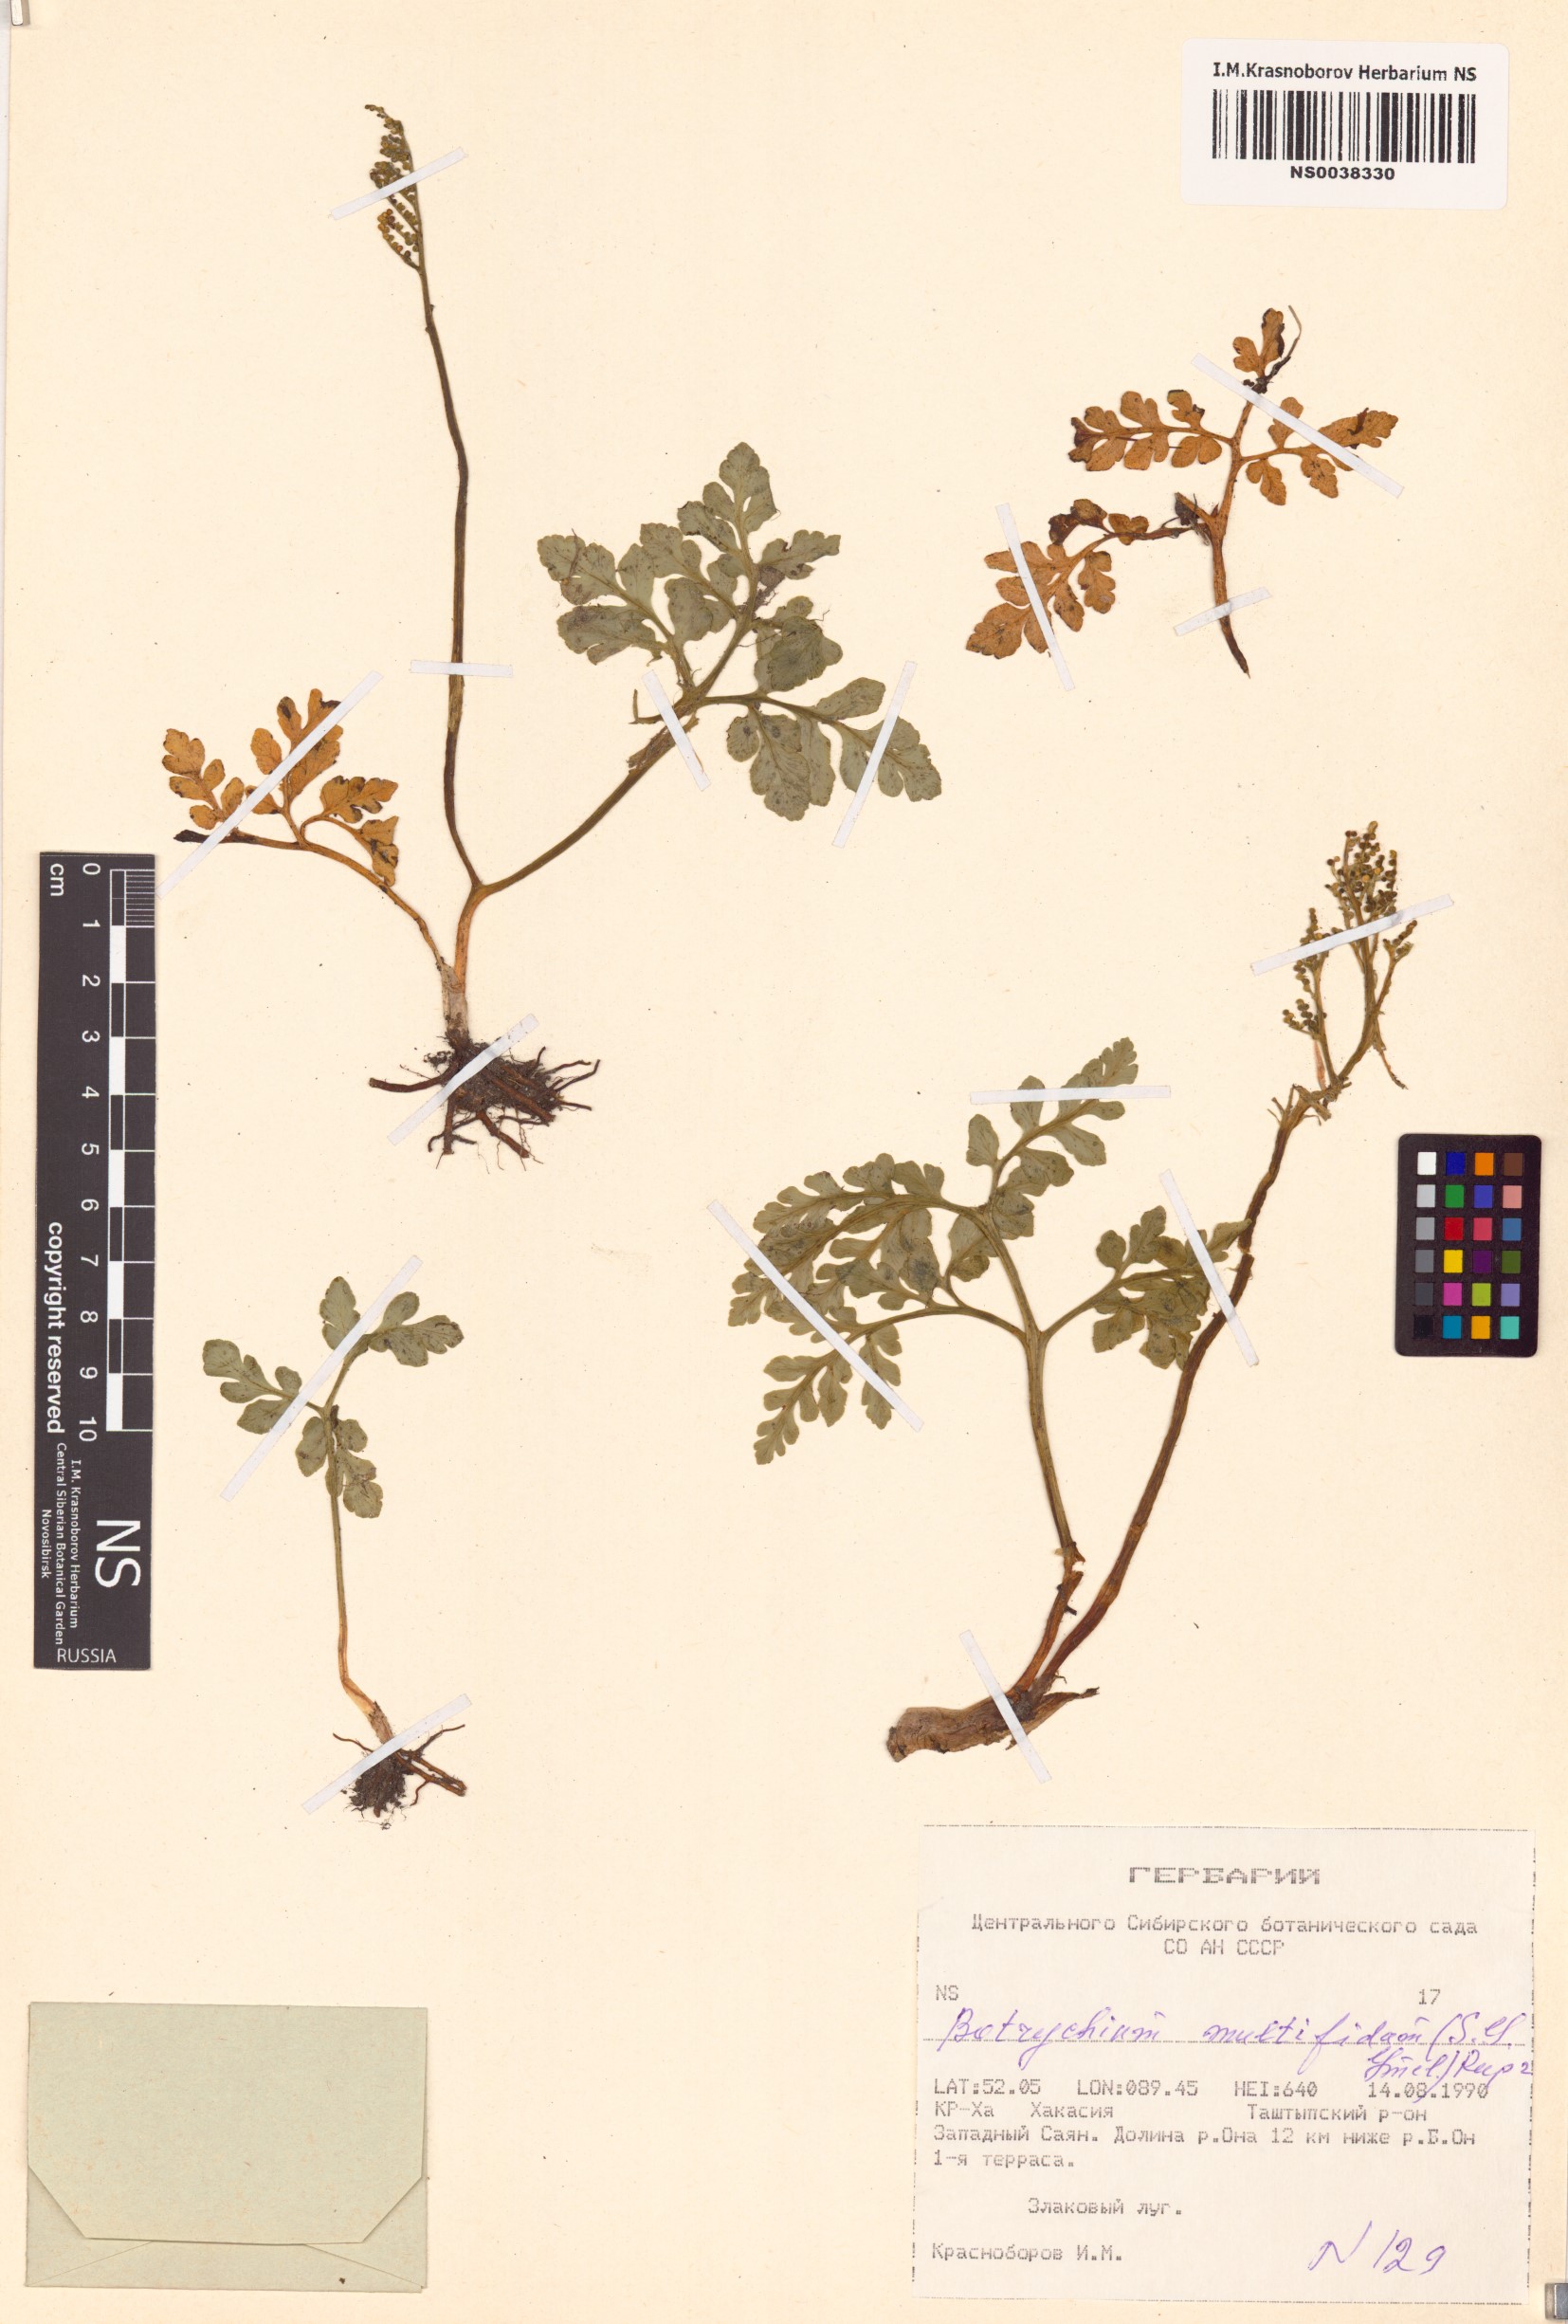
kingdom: Plantae
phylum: Tracheophyta
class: Polypodiopsida
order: Ophioglossales
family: Ophioglossaceae
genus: Sceptridium
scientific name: Sceptridium multifidum
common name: Leathery grape fern
